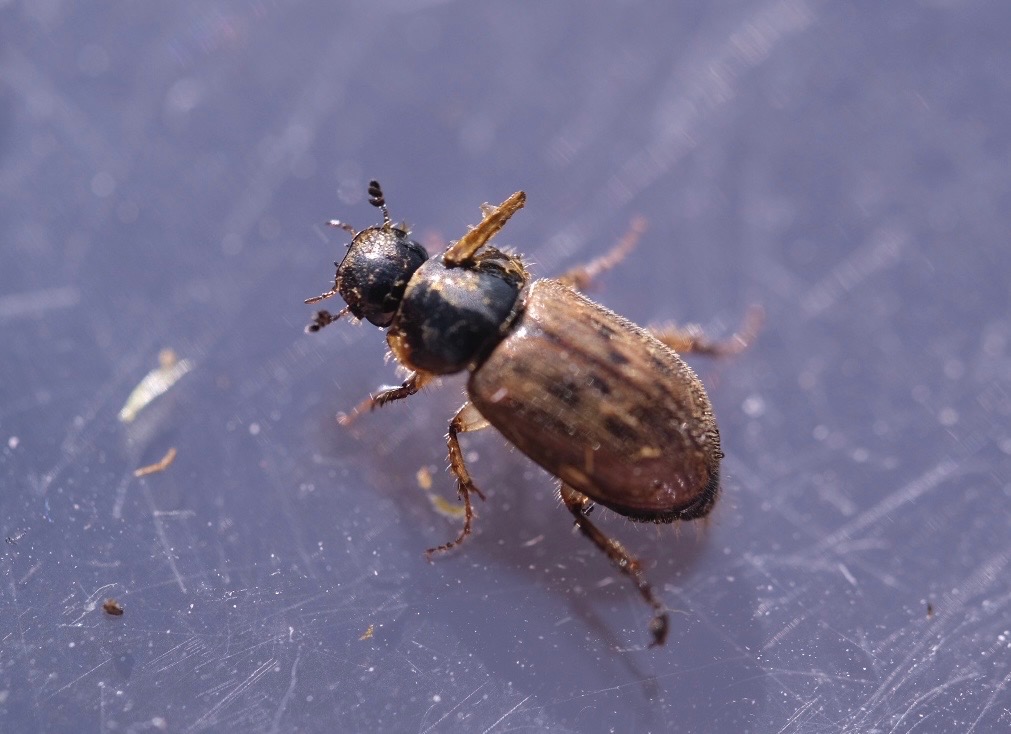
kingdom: Animalia
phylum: Arthropoda
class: Insecta
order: Coleoptera
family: Scarabaeidae
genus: Nimbus
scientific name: Nimbus contaminatus
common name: Sandhåret møgbille
